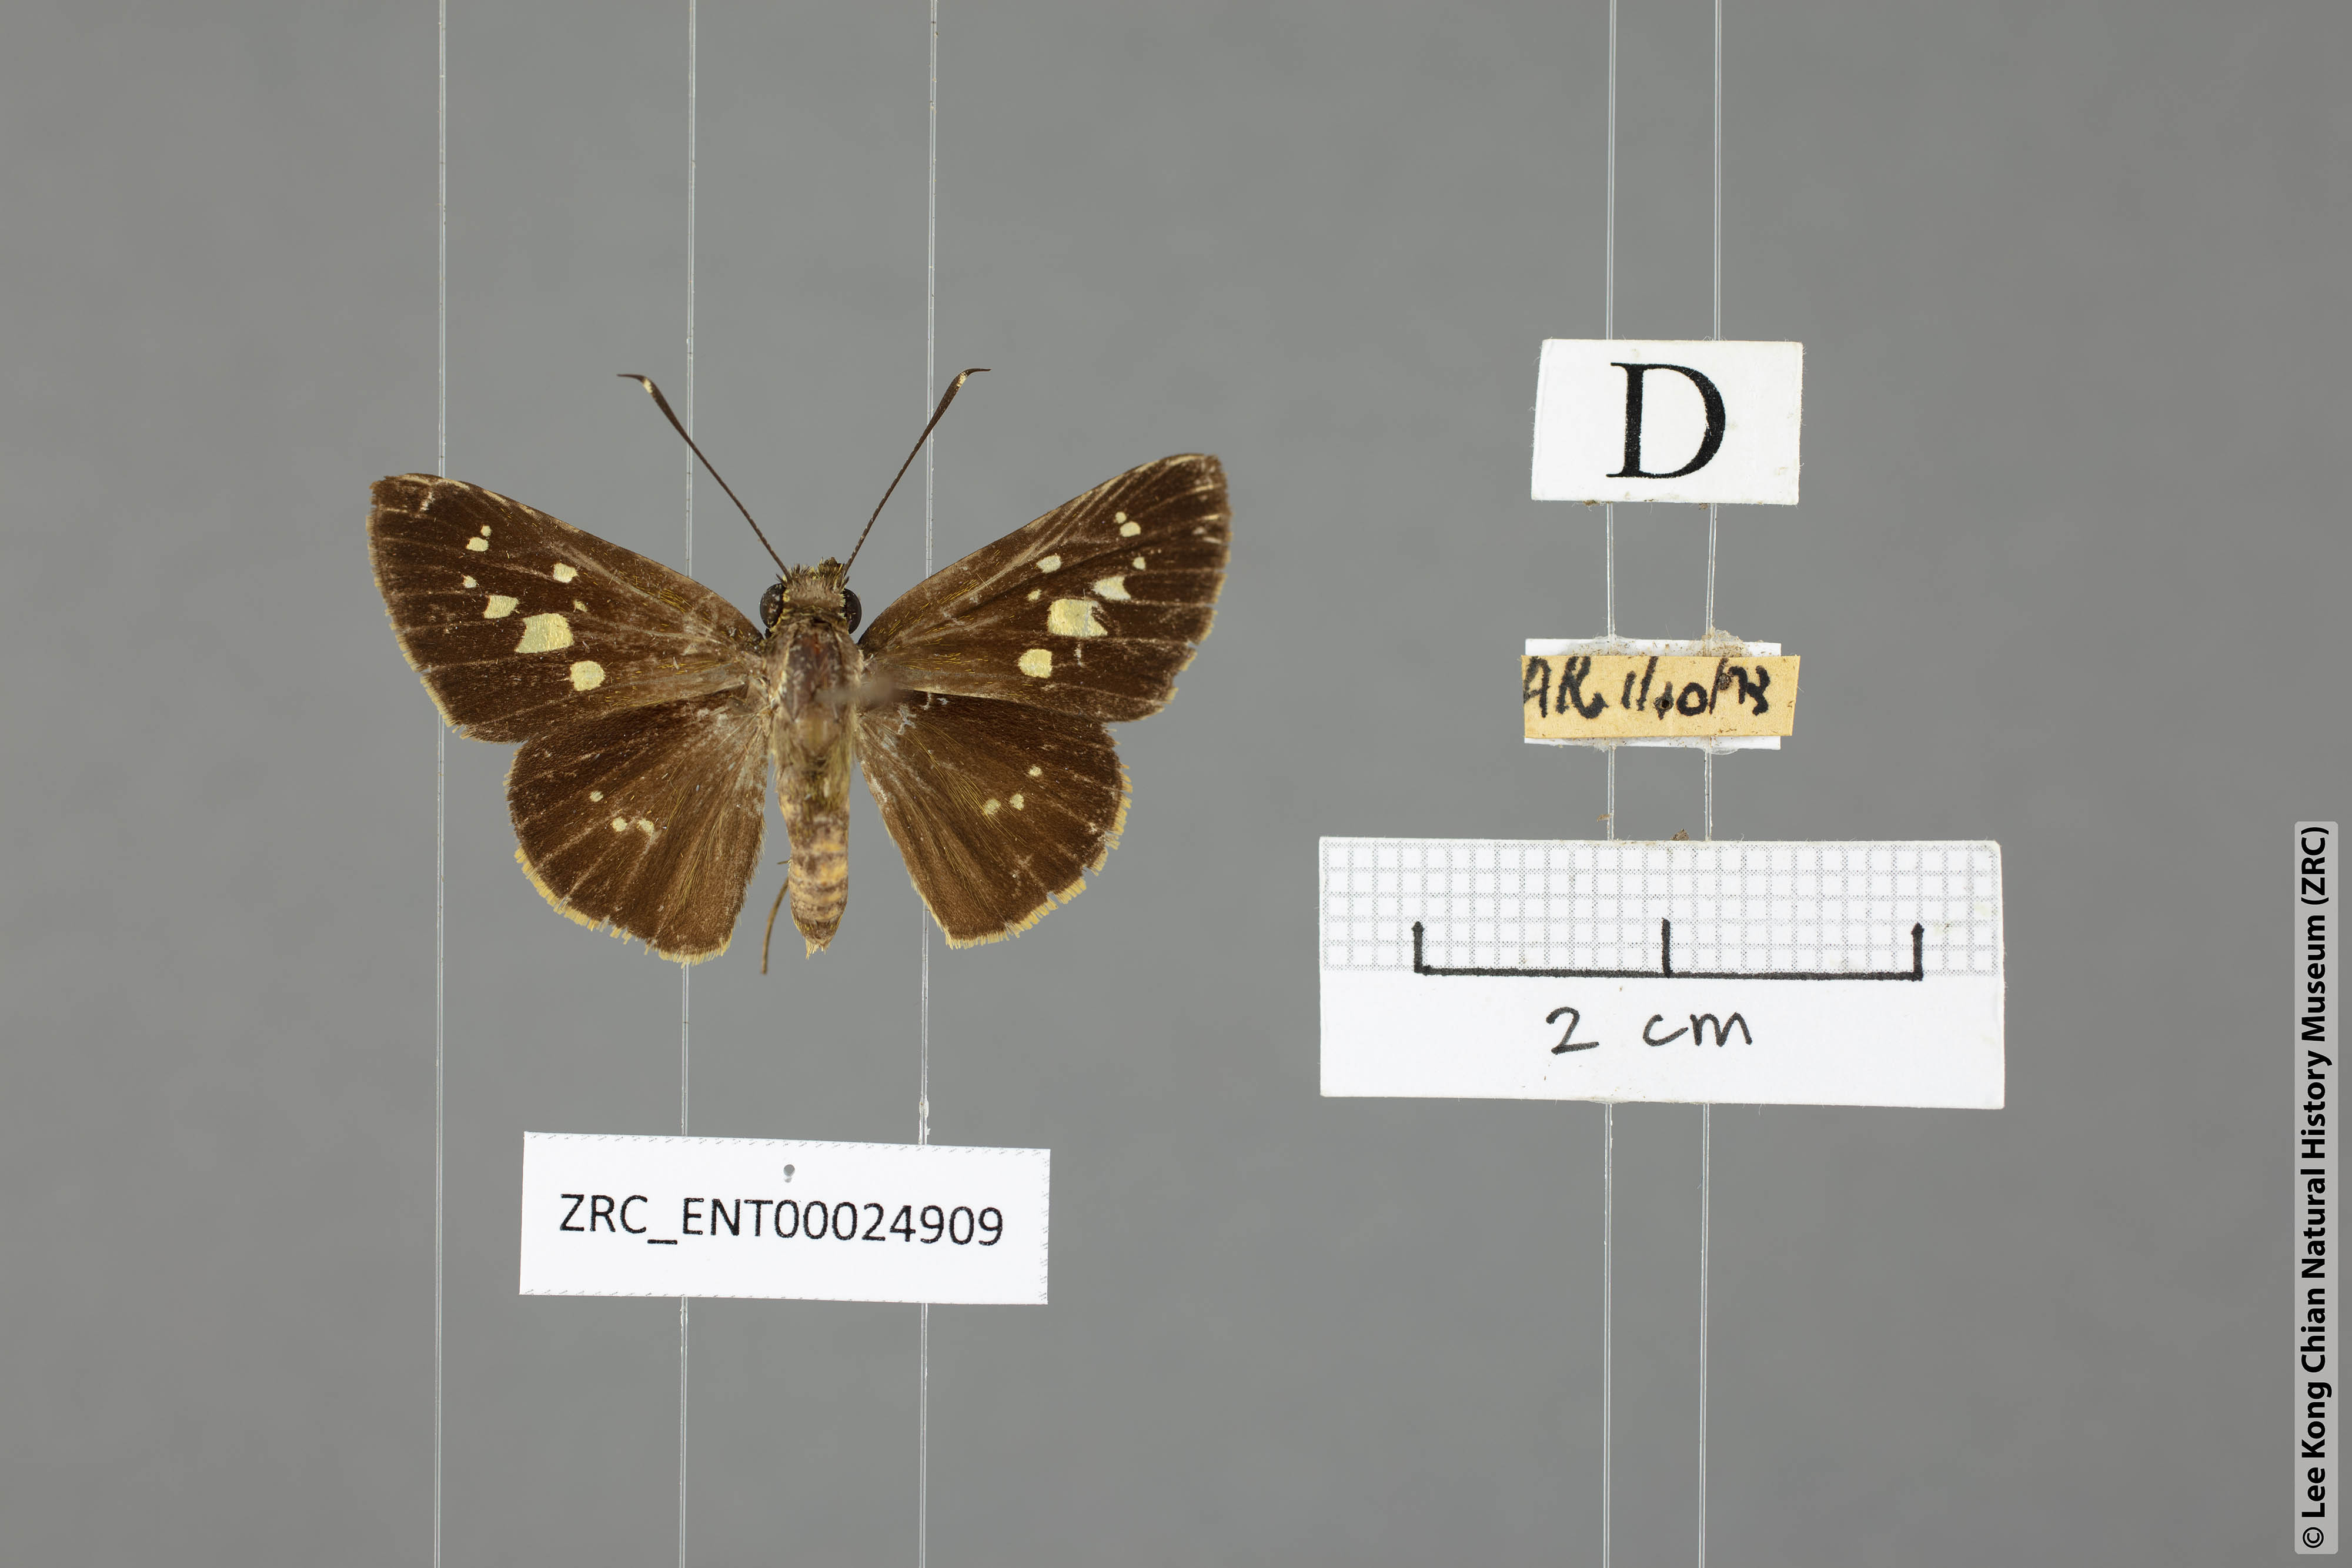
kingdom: Animalia
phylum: Arthropoda
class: Insecta
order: Lepidoptera
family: Hesperiidae
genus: Isma
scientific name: Isma umbrosa
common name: Large long-banded flitter
